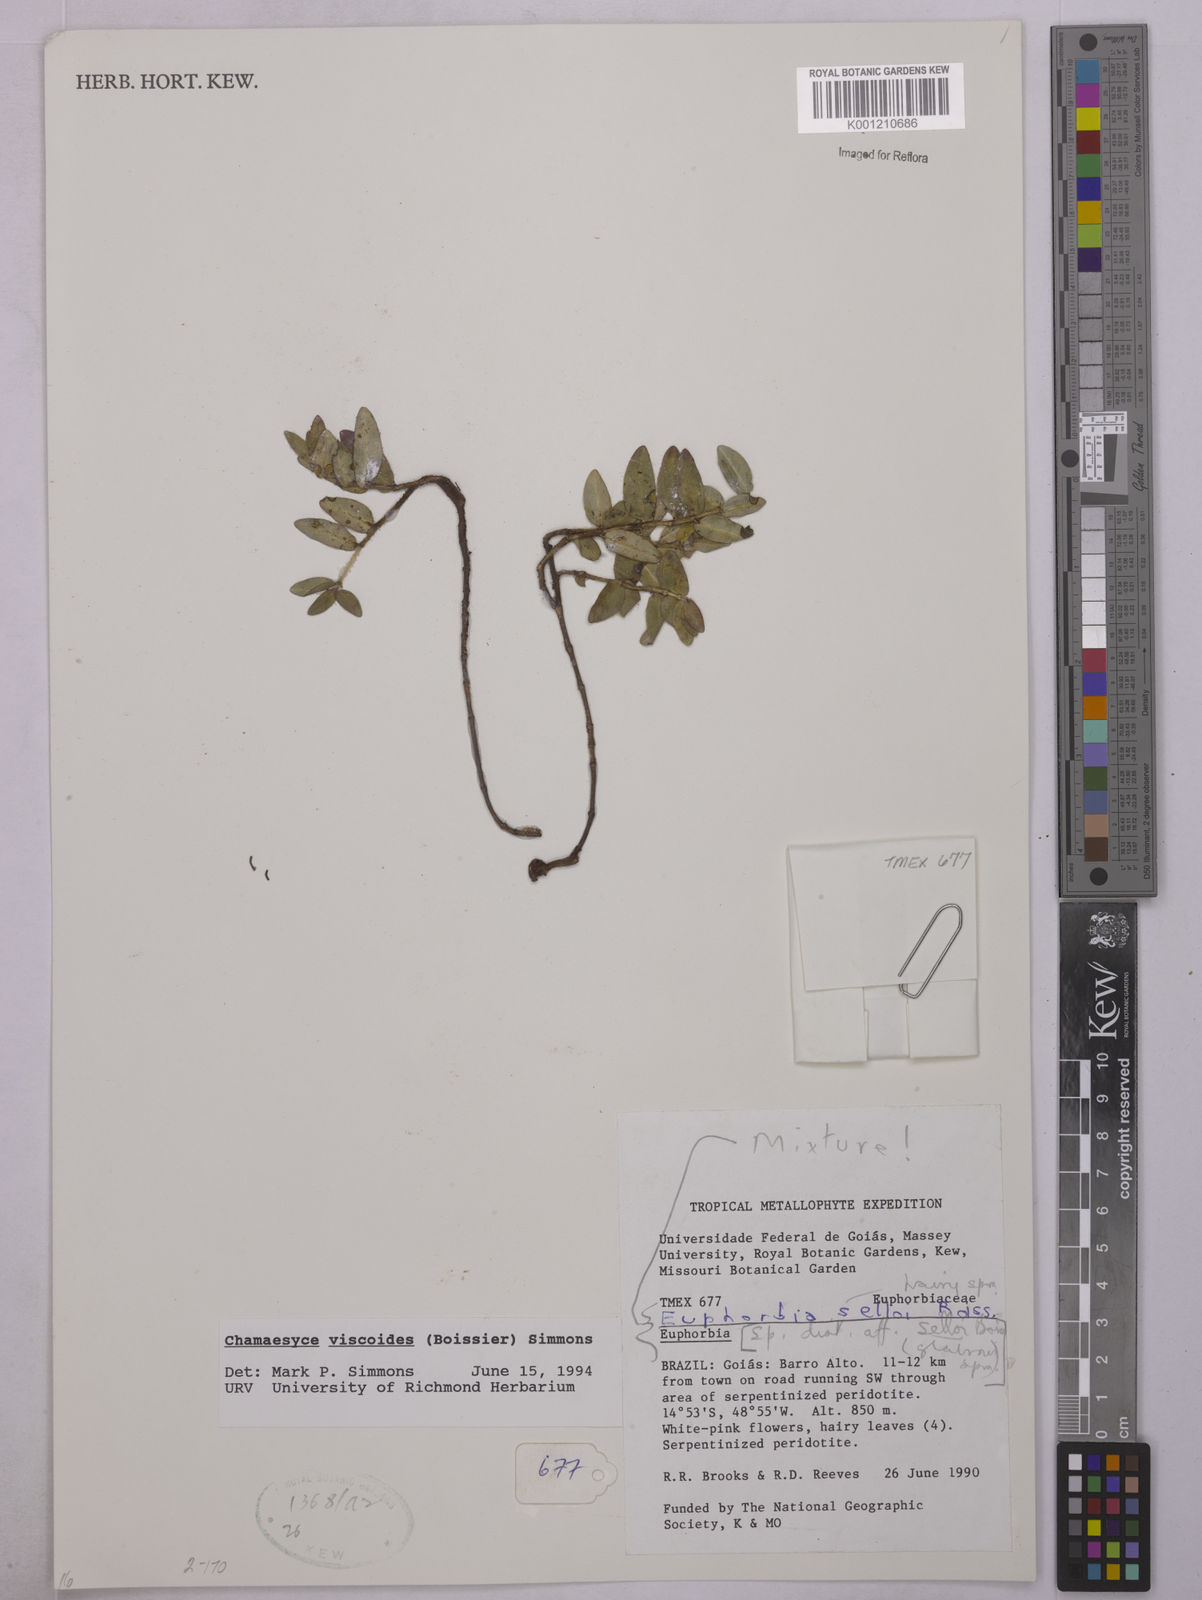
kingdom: Plantae
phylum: Tracheophyta
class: Magnoliopsida
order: Malpighiales
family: Euphorbiaceae
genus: Euphorbia
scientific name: Euphorbia viscoides
